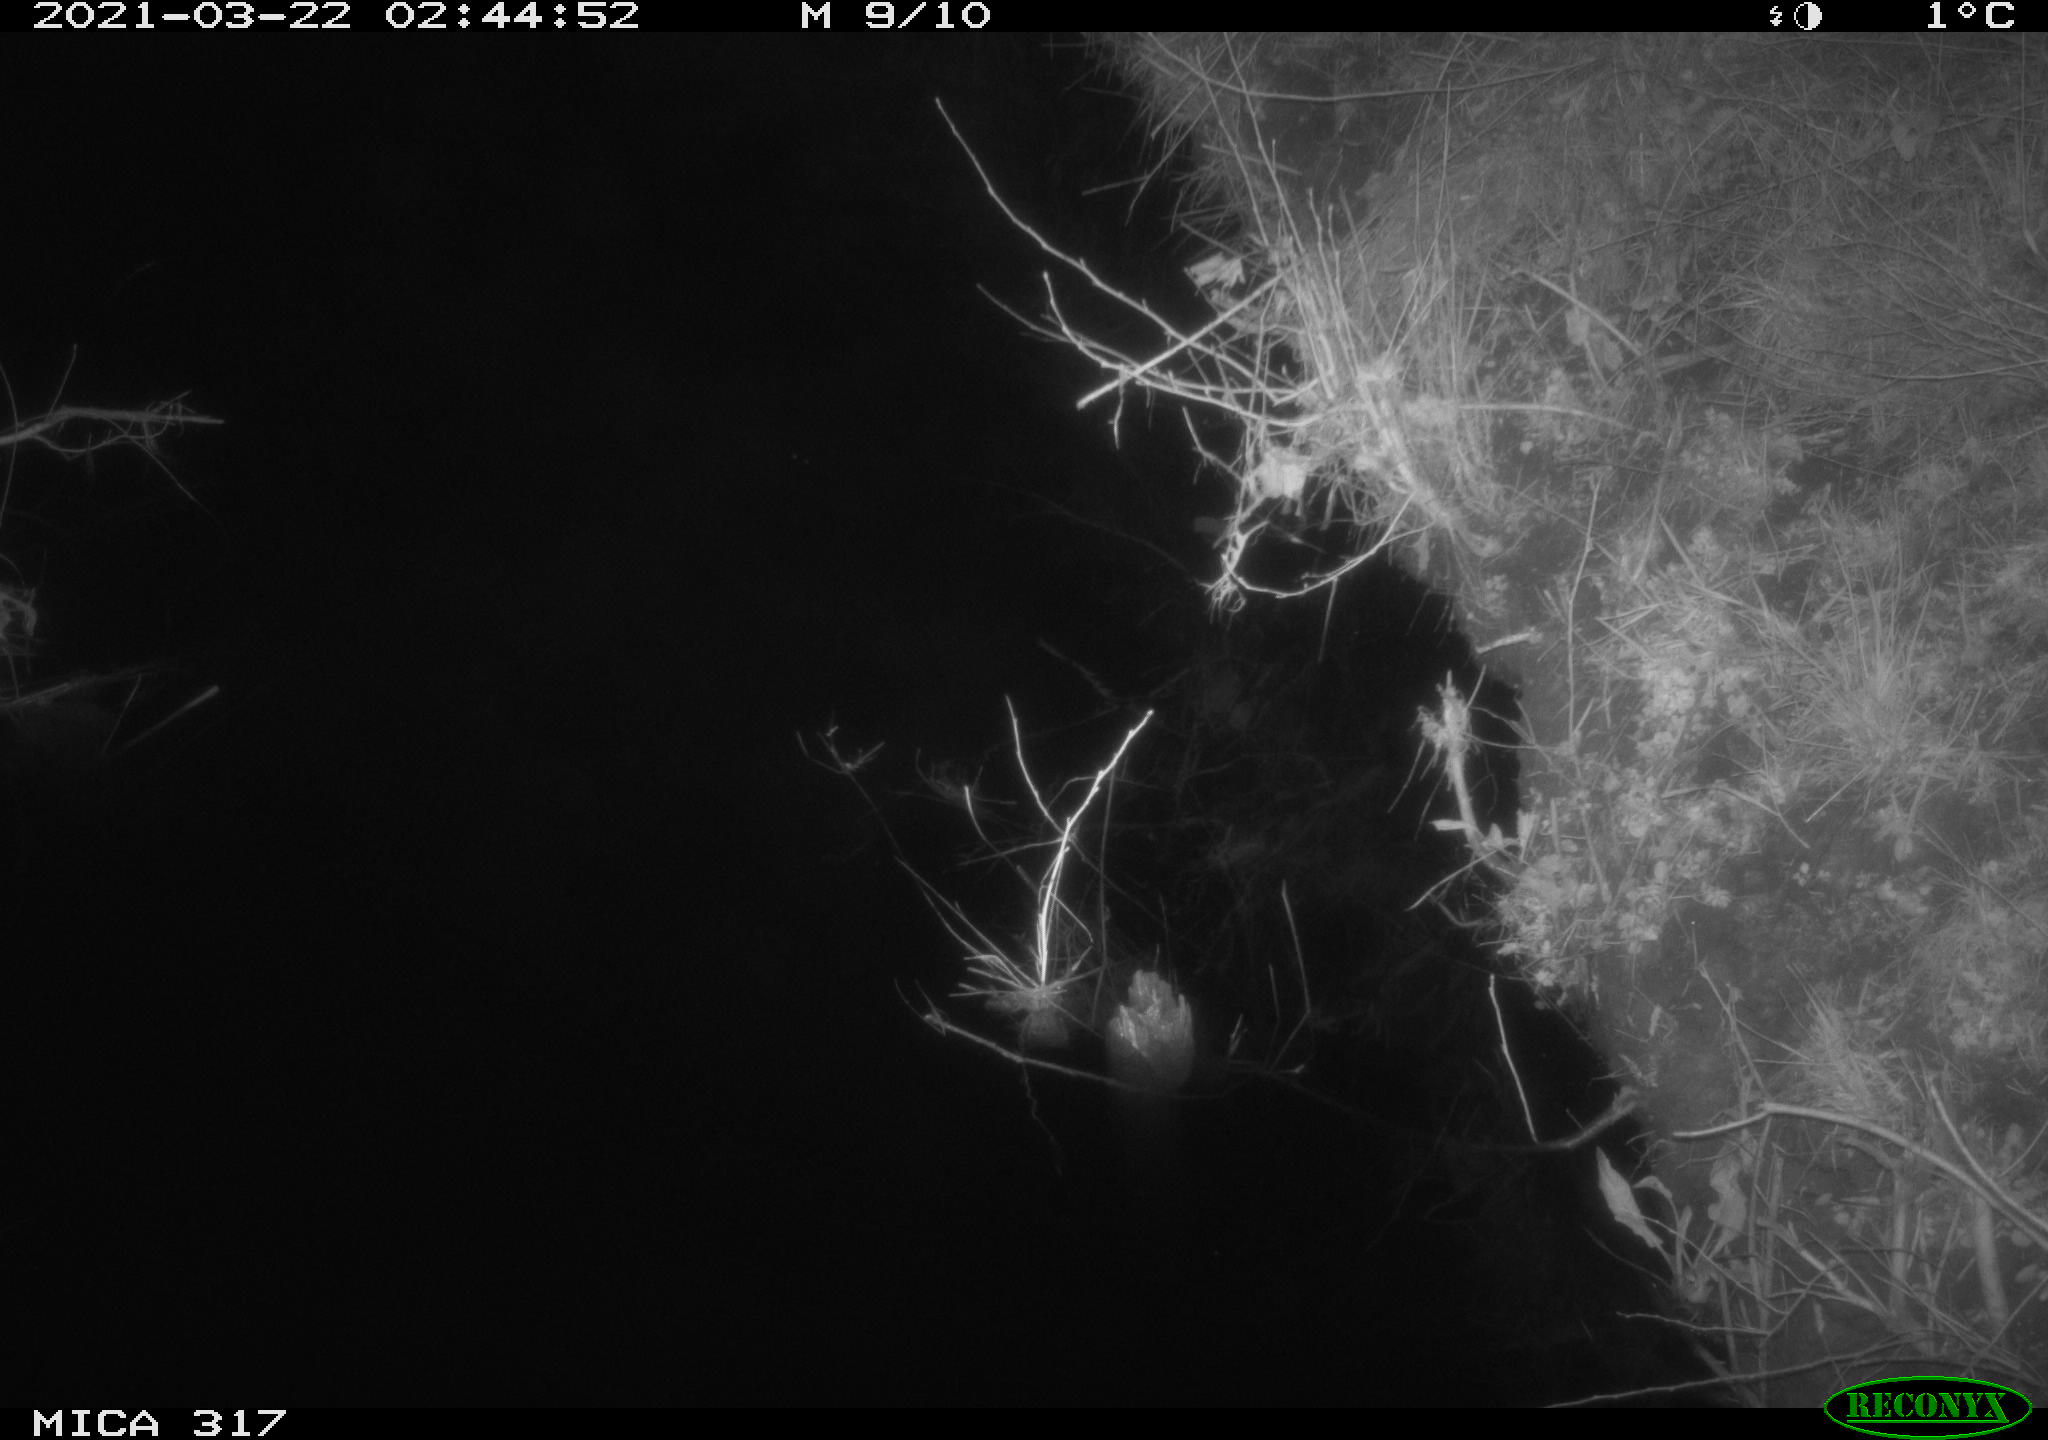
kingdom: Animalia
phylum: Chordata
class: Aves
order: Anseriformes
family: Anatidae
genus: Anas
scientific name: Anas platyrhynchos
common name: Mallard
